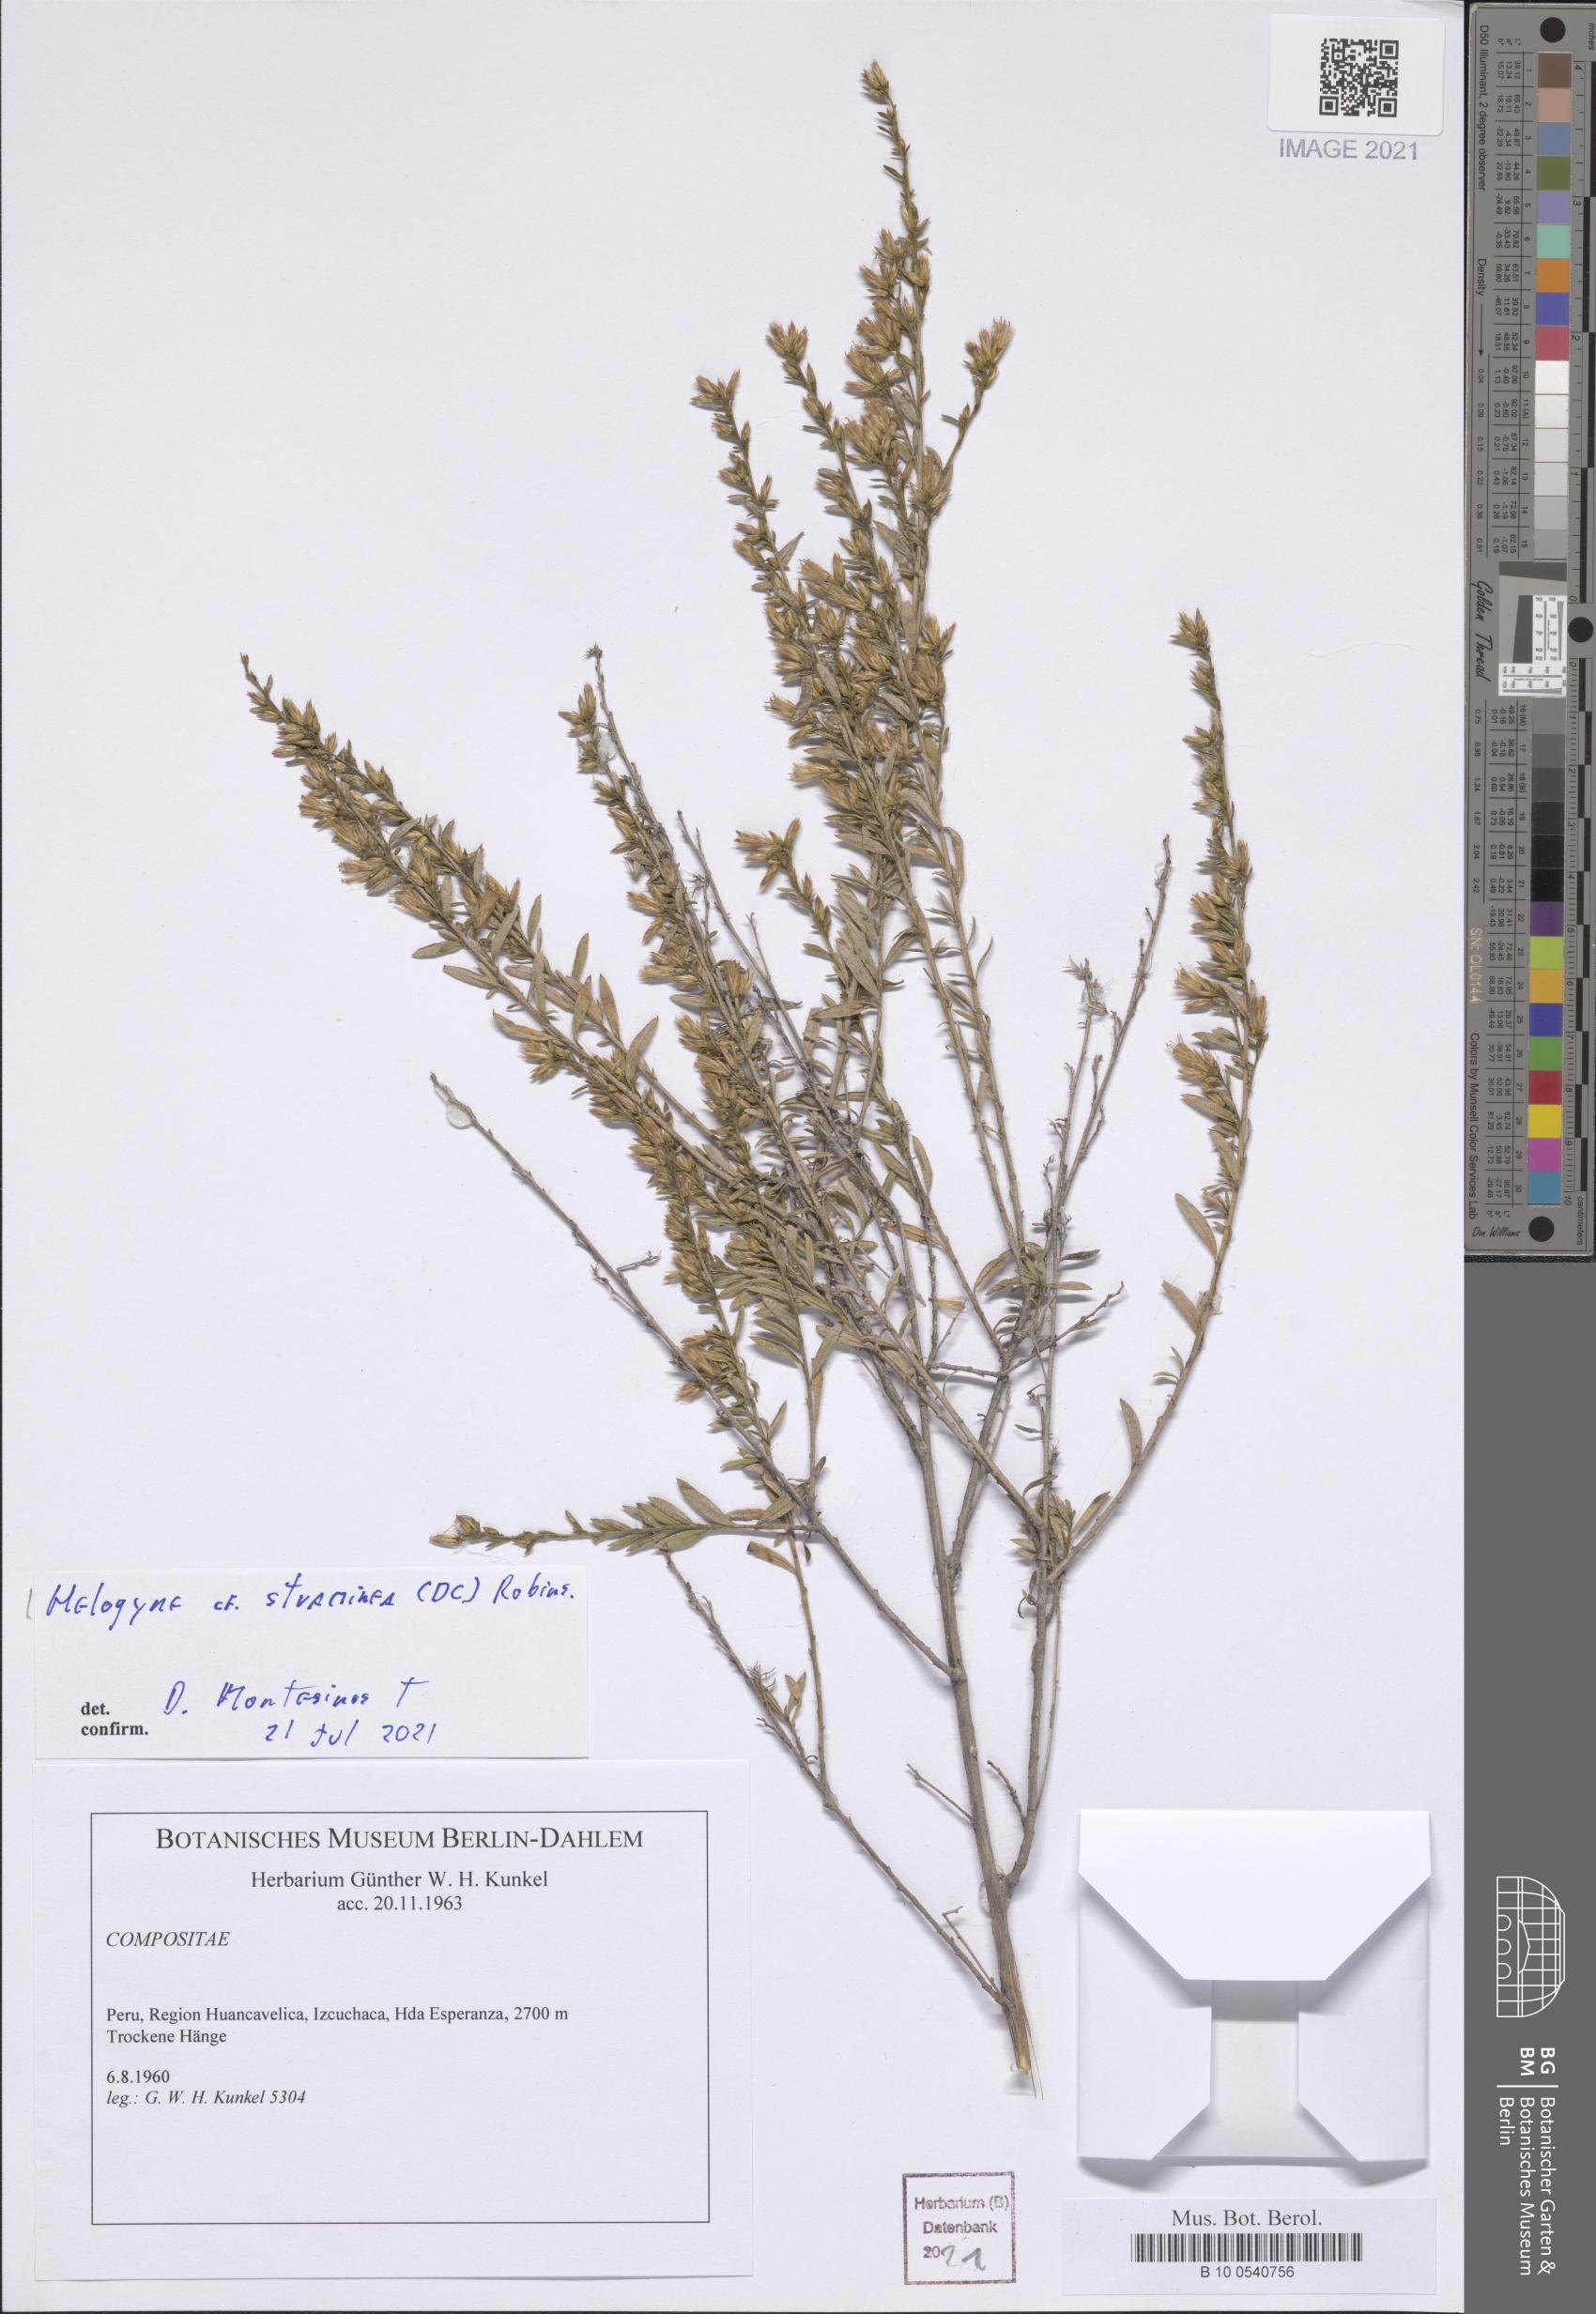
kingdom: Plantae
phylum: Tracheophyta
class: Magnoliopsida
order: Asterales
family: Asteraceae
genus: Helogyne
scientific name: Helogyne straminea
